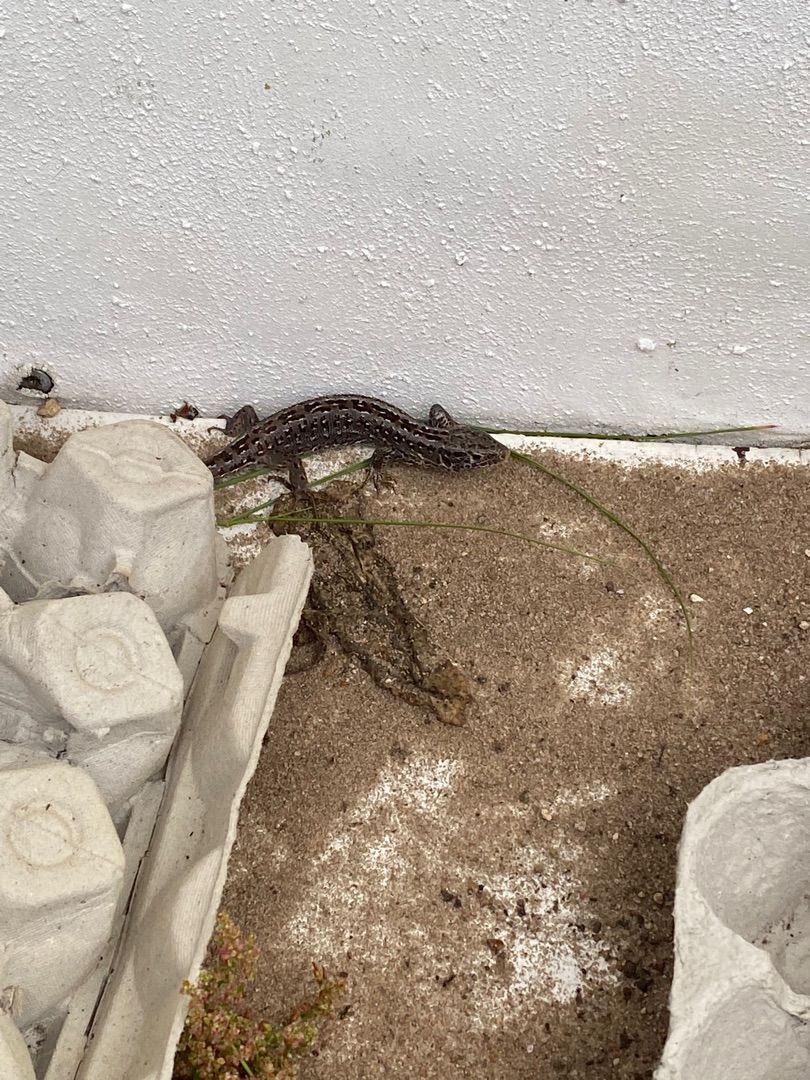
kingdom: Animalia
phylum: Chordata
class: Squamata
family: Lacertidae
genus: Lacerta
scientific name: Lacerta agilis
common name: Markfirben
